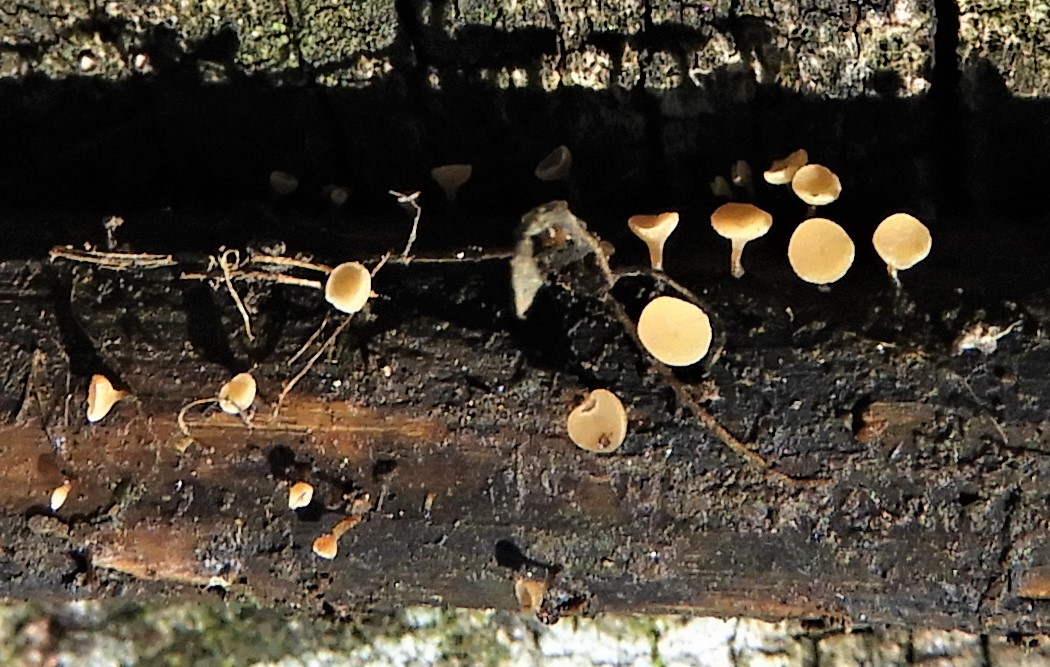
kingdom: Fungi
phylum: Ascomycota
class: Leotiomycetes
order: Helotiales
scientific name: Helotiales
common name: stilkskiveordenen
